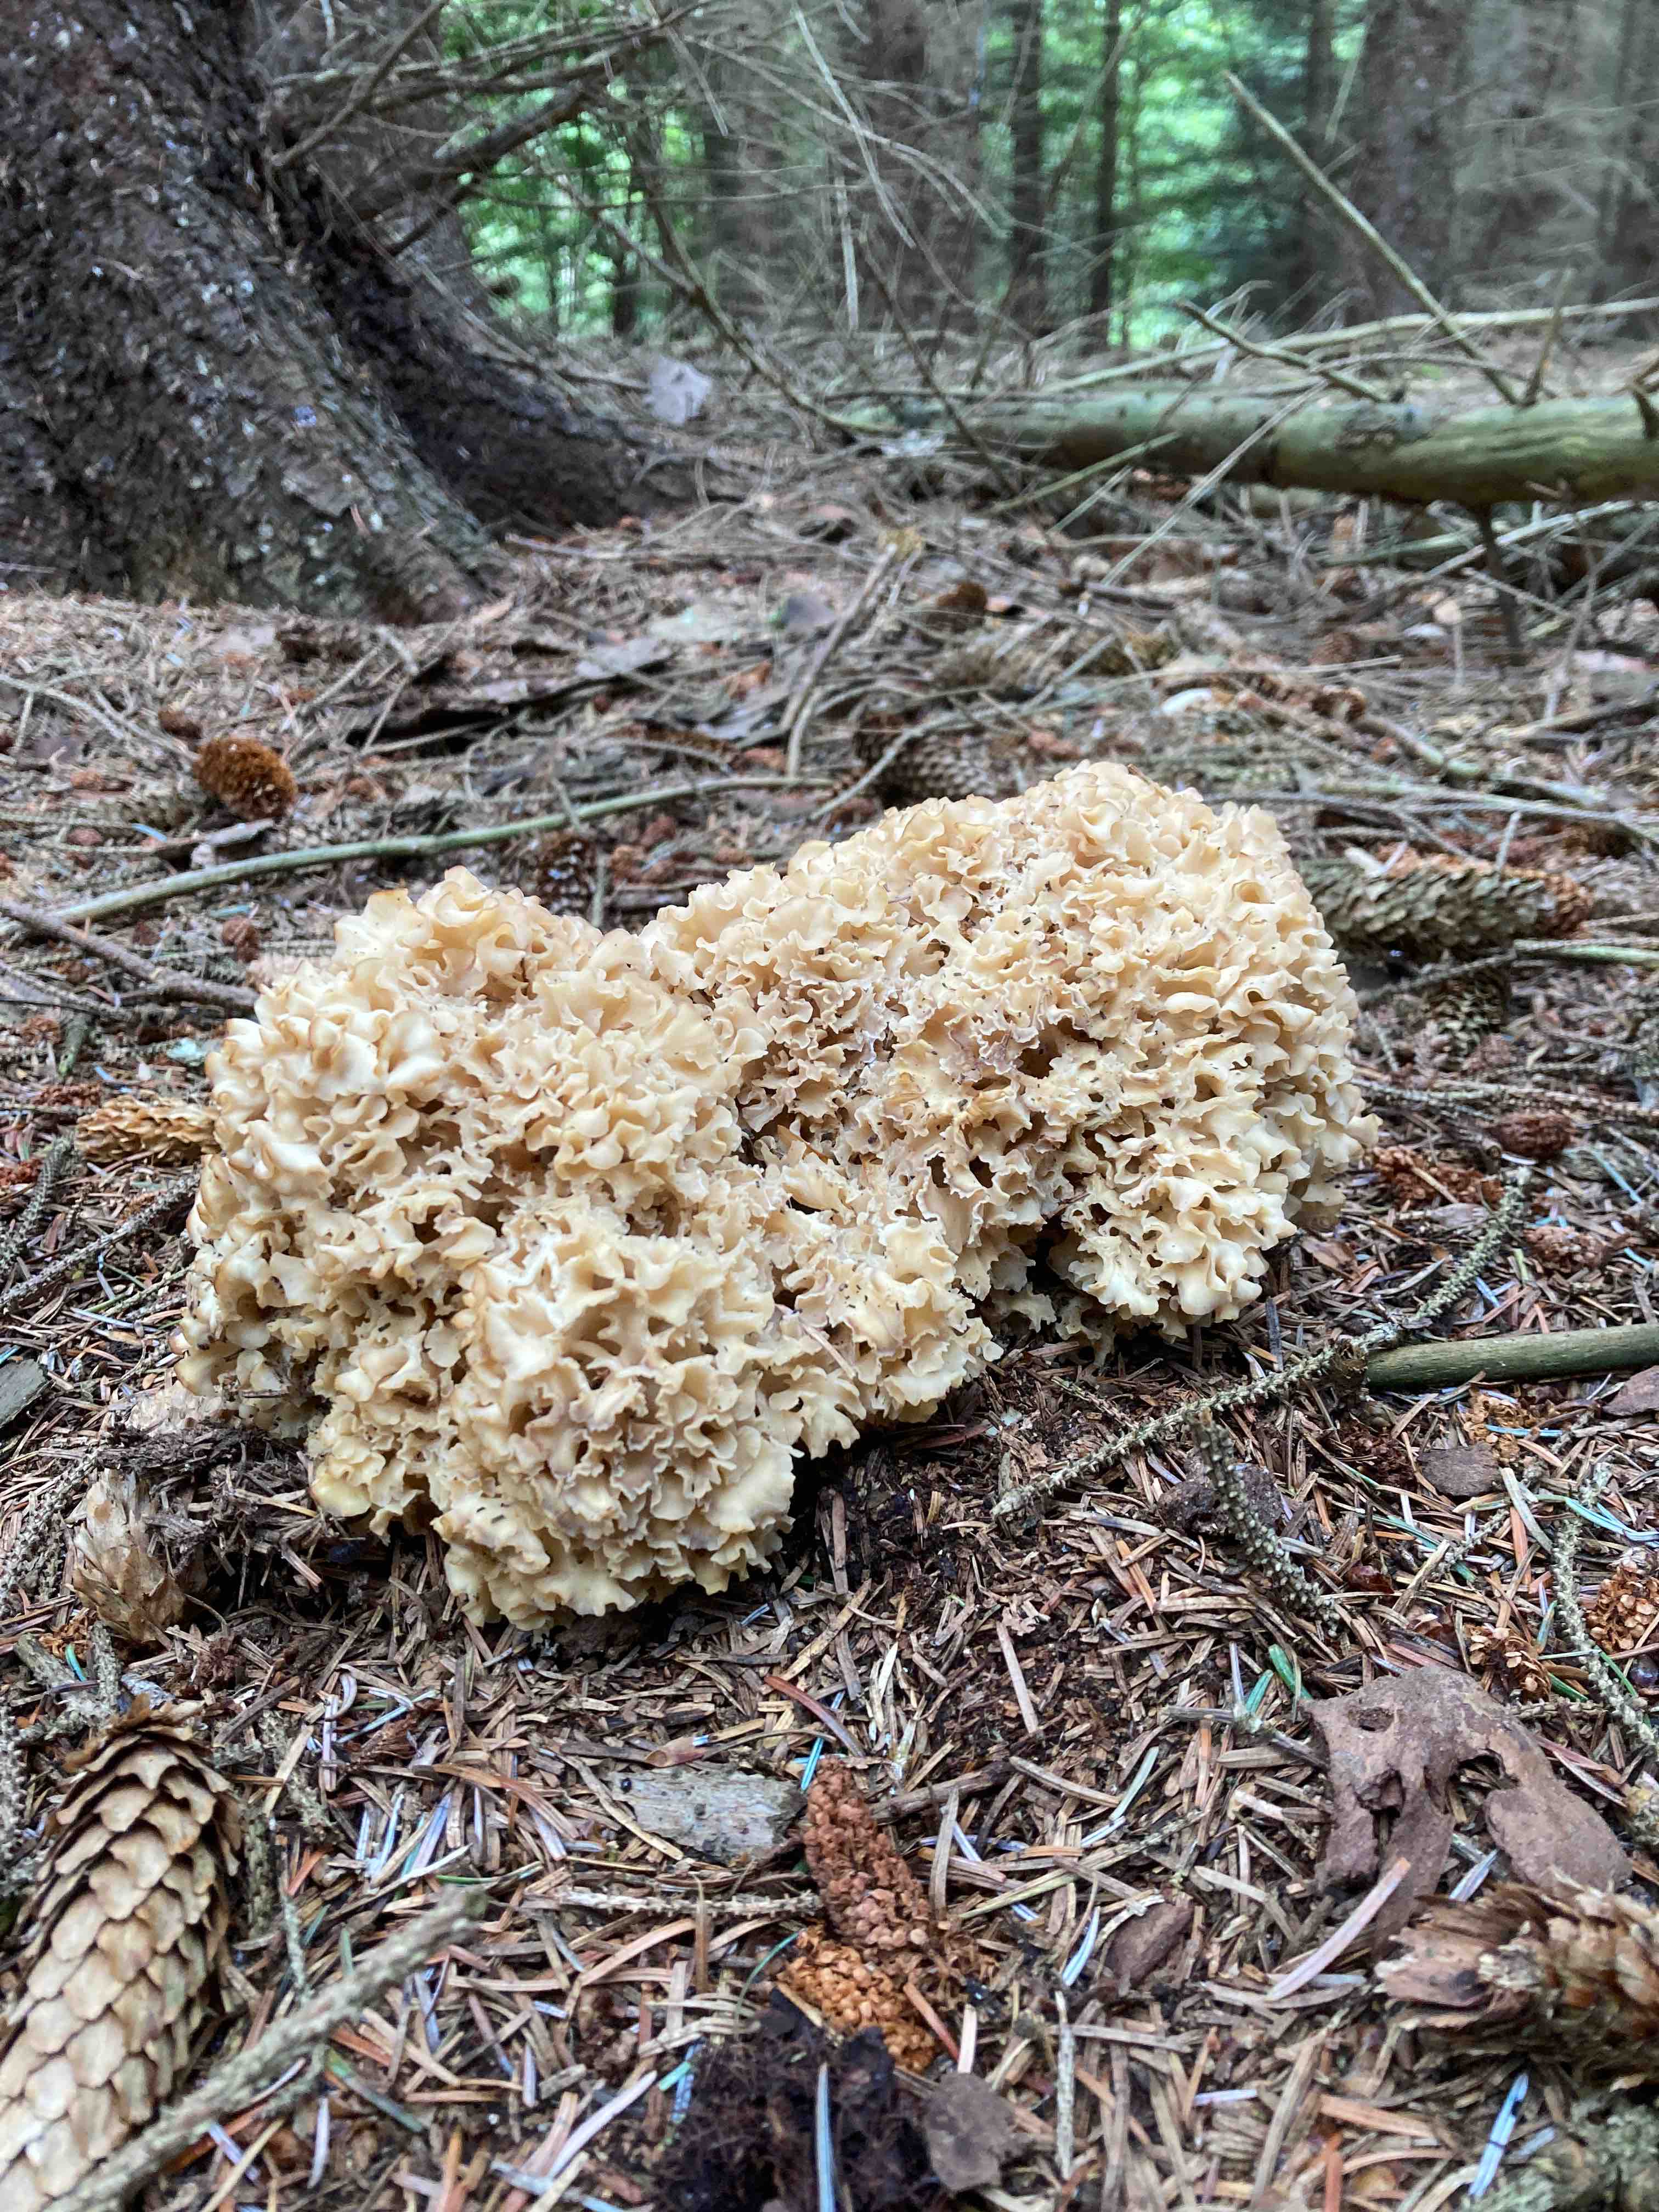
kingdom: Fungi
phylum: Basidiomycota
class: Agaricomycetes
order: Polyporales
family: Sparassidaceae
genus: Sparassis
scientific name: Sparassis crispa
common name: kruset blomkålssvamp
